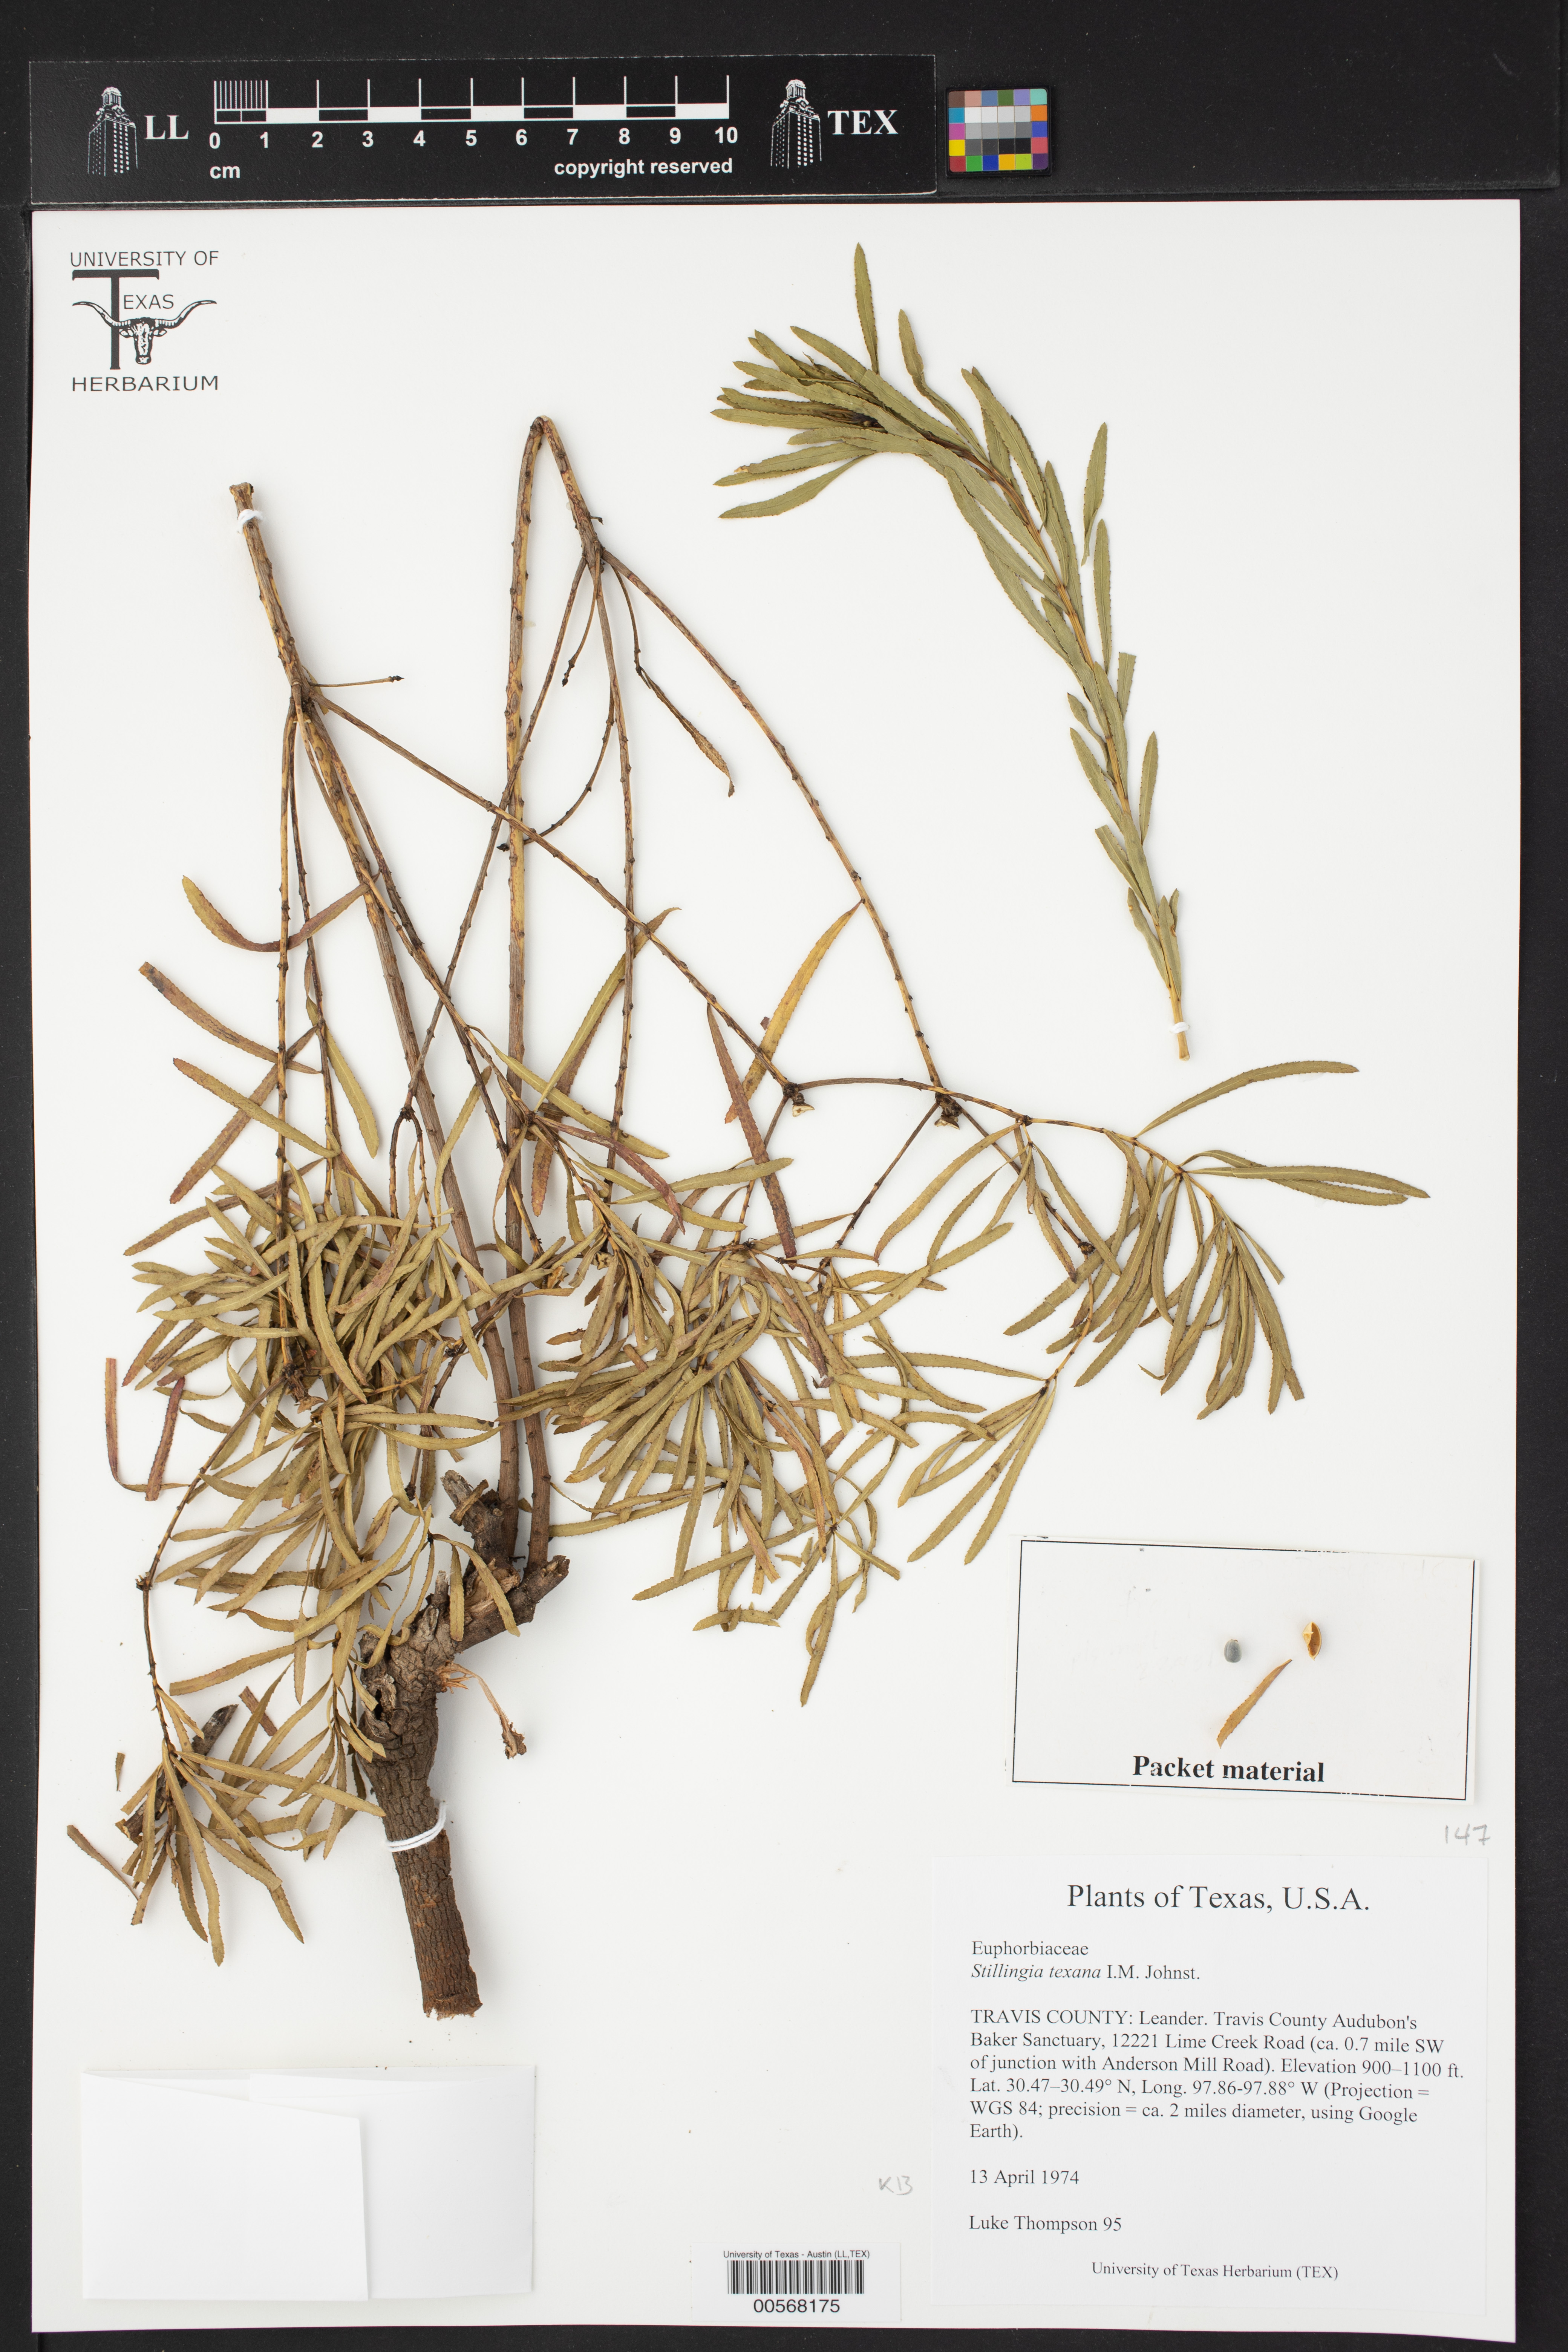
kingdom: Plantae
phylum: Tracheophyta
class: Magnoliopsida
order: Malpighiales
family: Euphorbiaceae
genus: Stillingia
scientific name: Stillingia texana
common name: Texas stillingia
